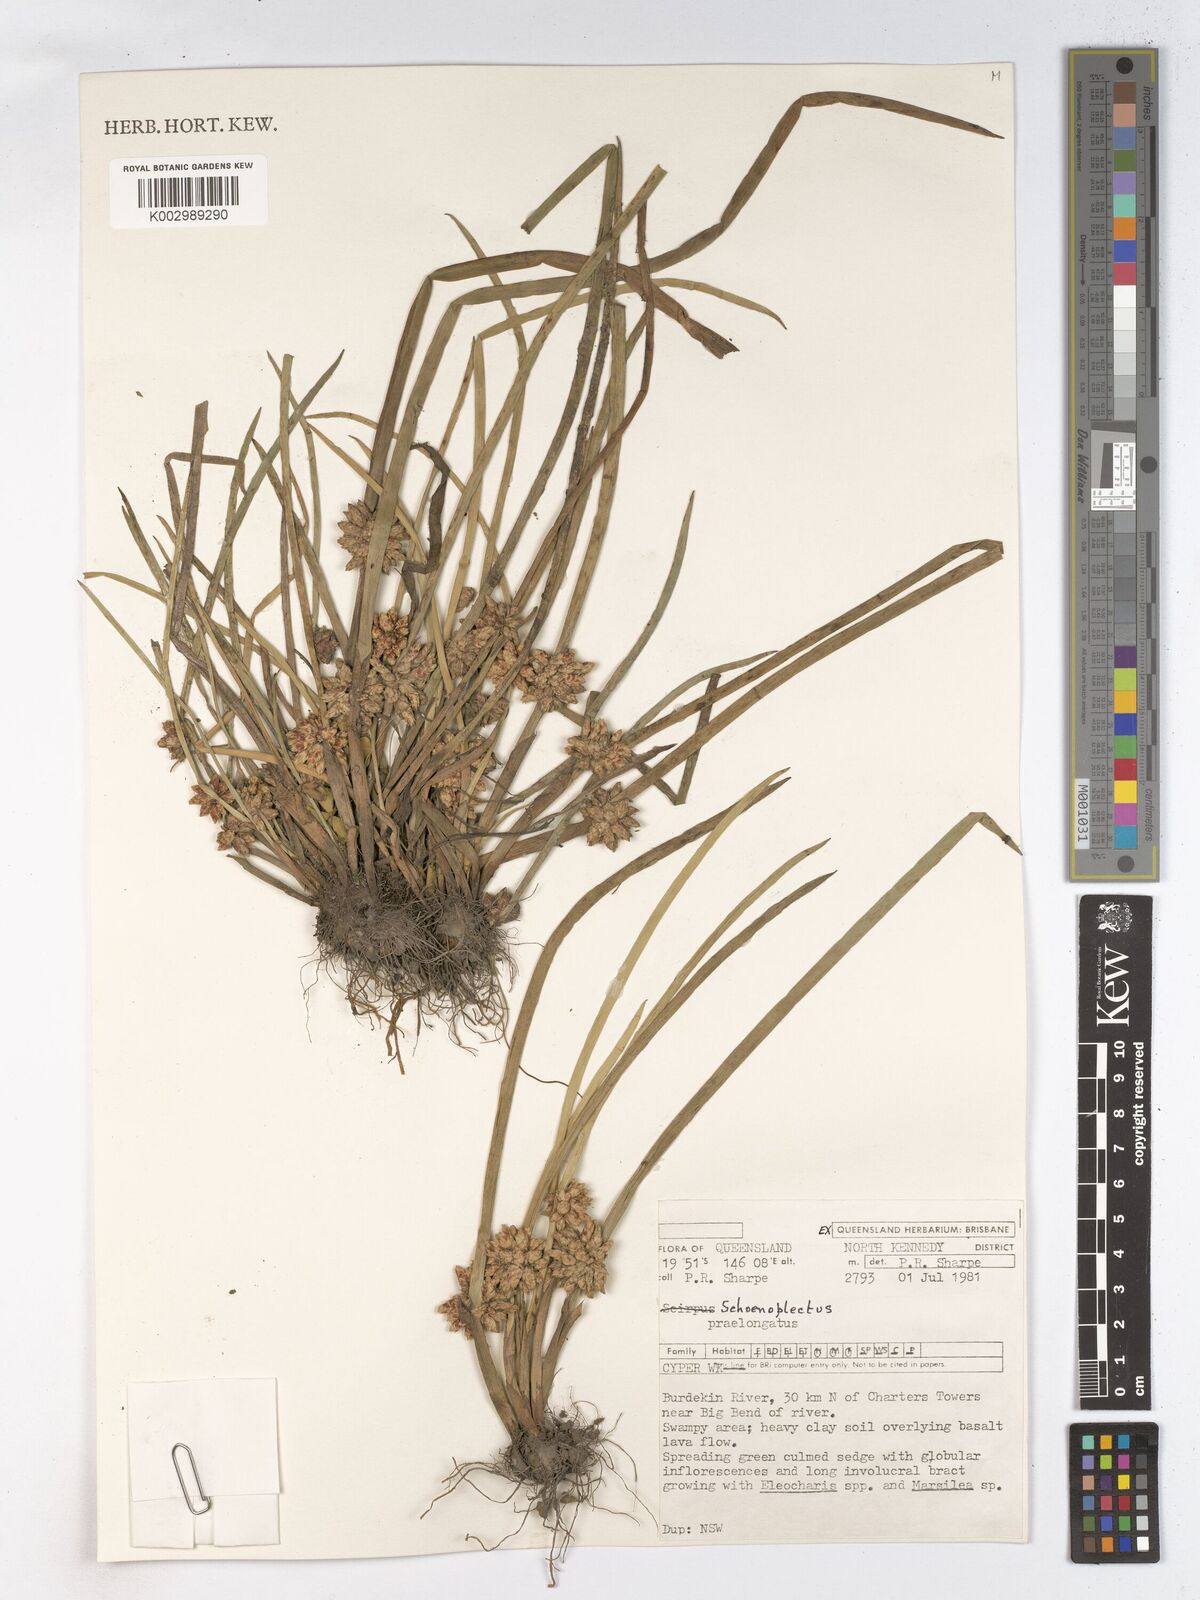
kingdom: Plantae
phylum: Tracheophyta
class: Liliopsida
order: Poales
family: Cyperaceae
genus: Schoenoplectiella
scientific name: Schoenoplectiella articulata
